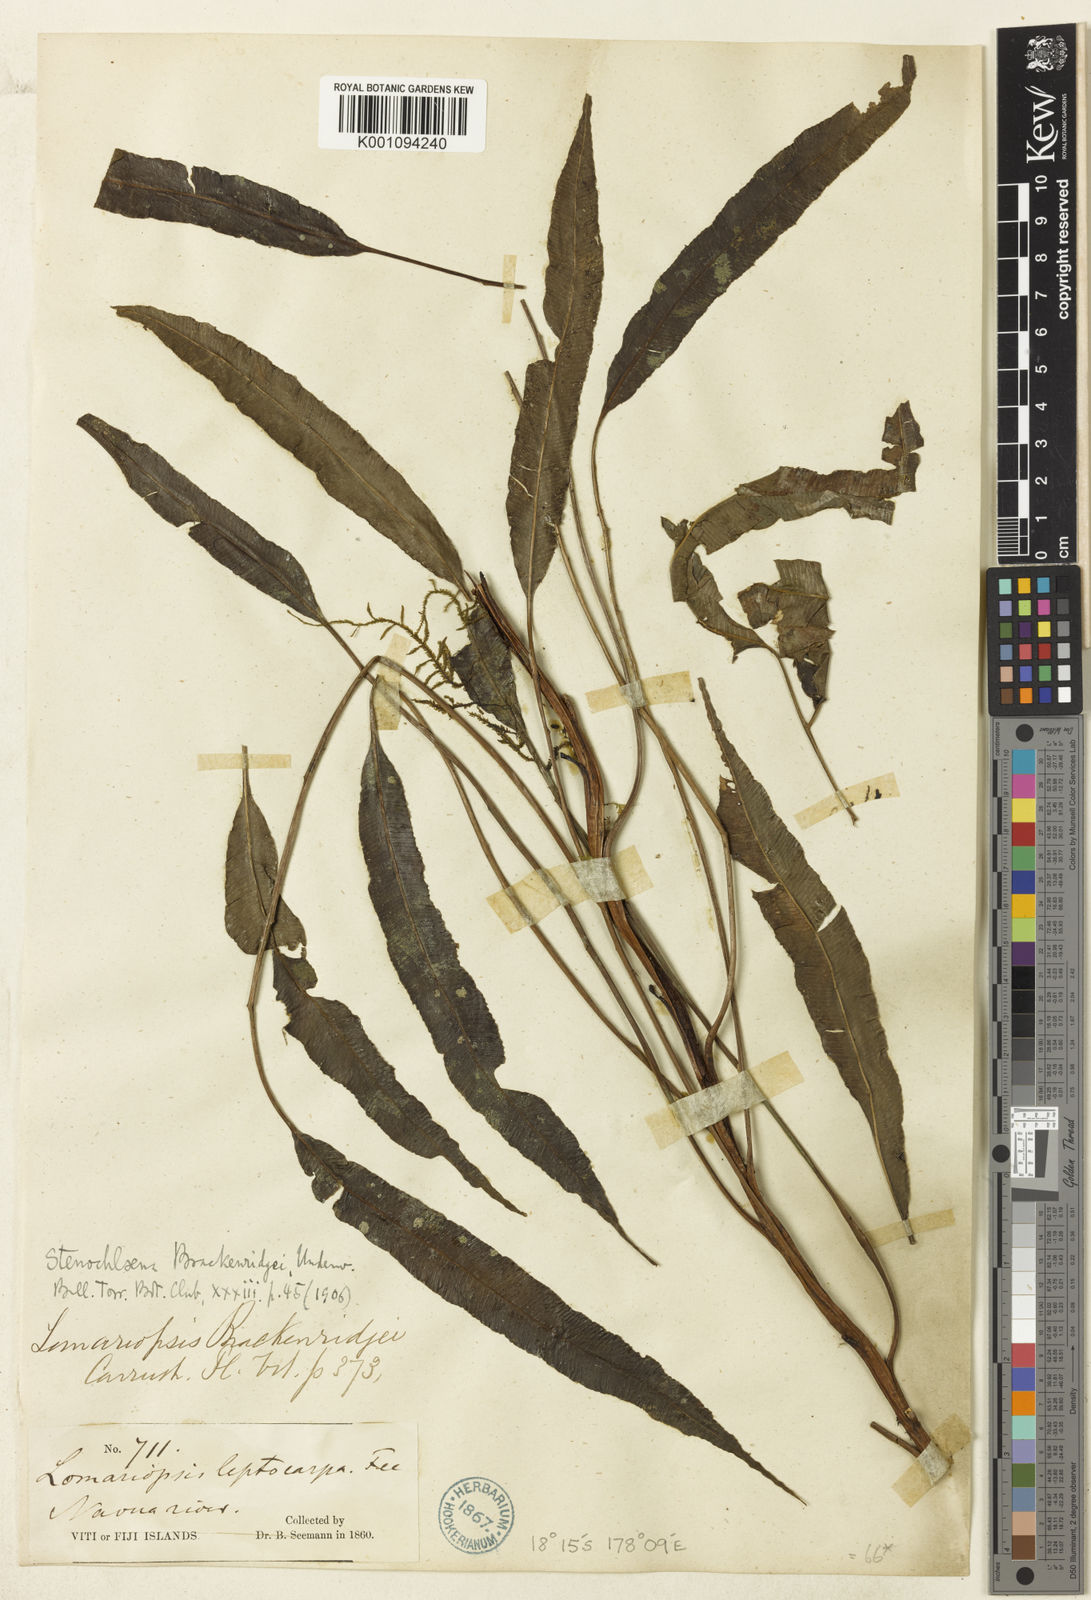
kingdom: Plantae
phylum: Tracheophyta
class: Polypodiopsida
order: Polypodiales
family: Lomariopsidaceae
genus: Lomariopsis
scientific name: Lomariopsis brackenridgei
